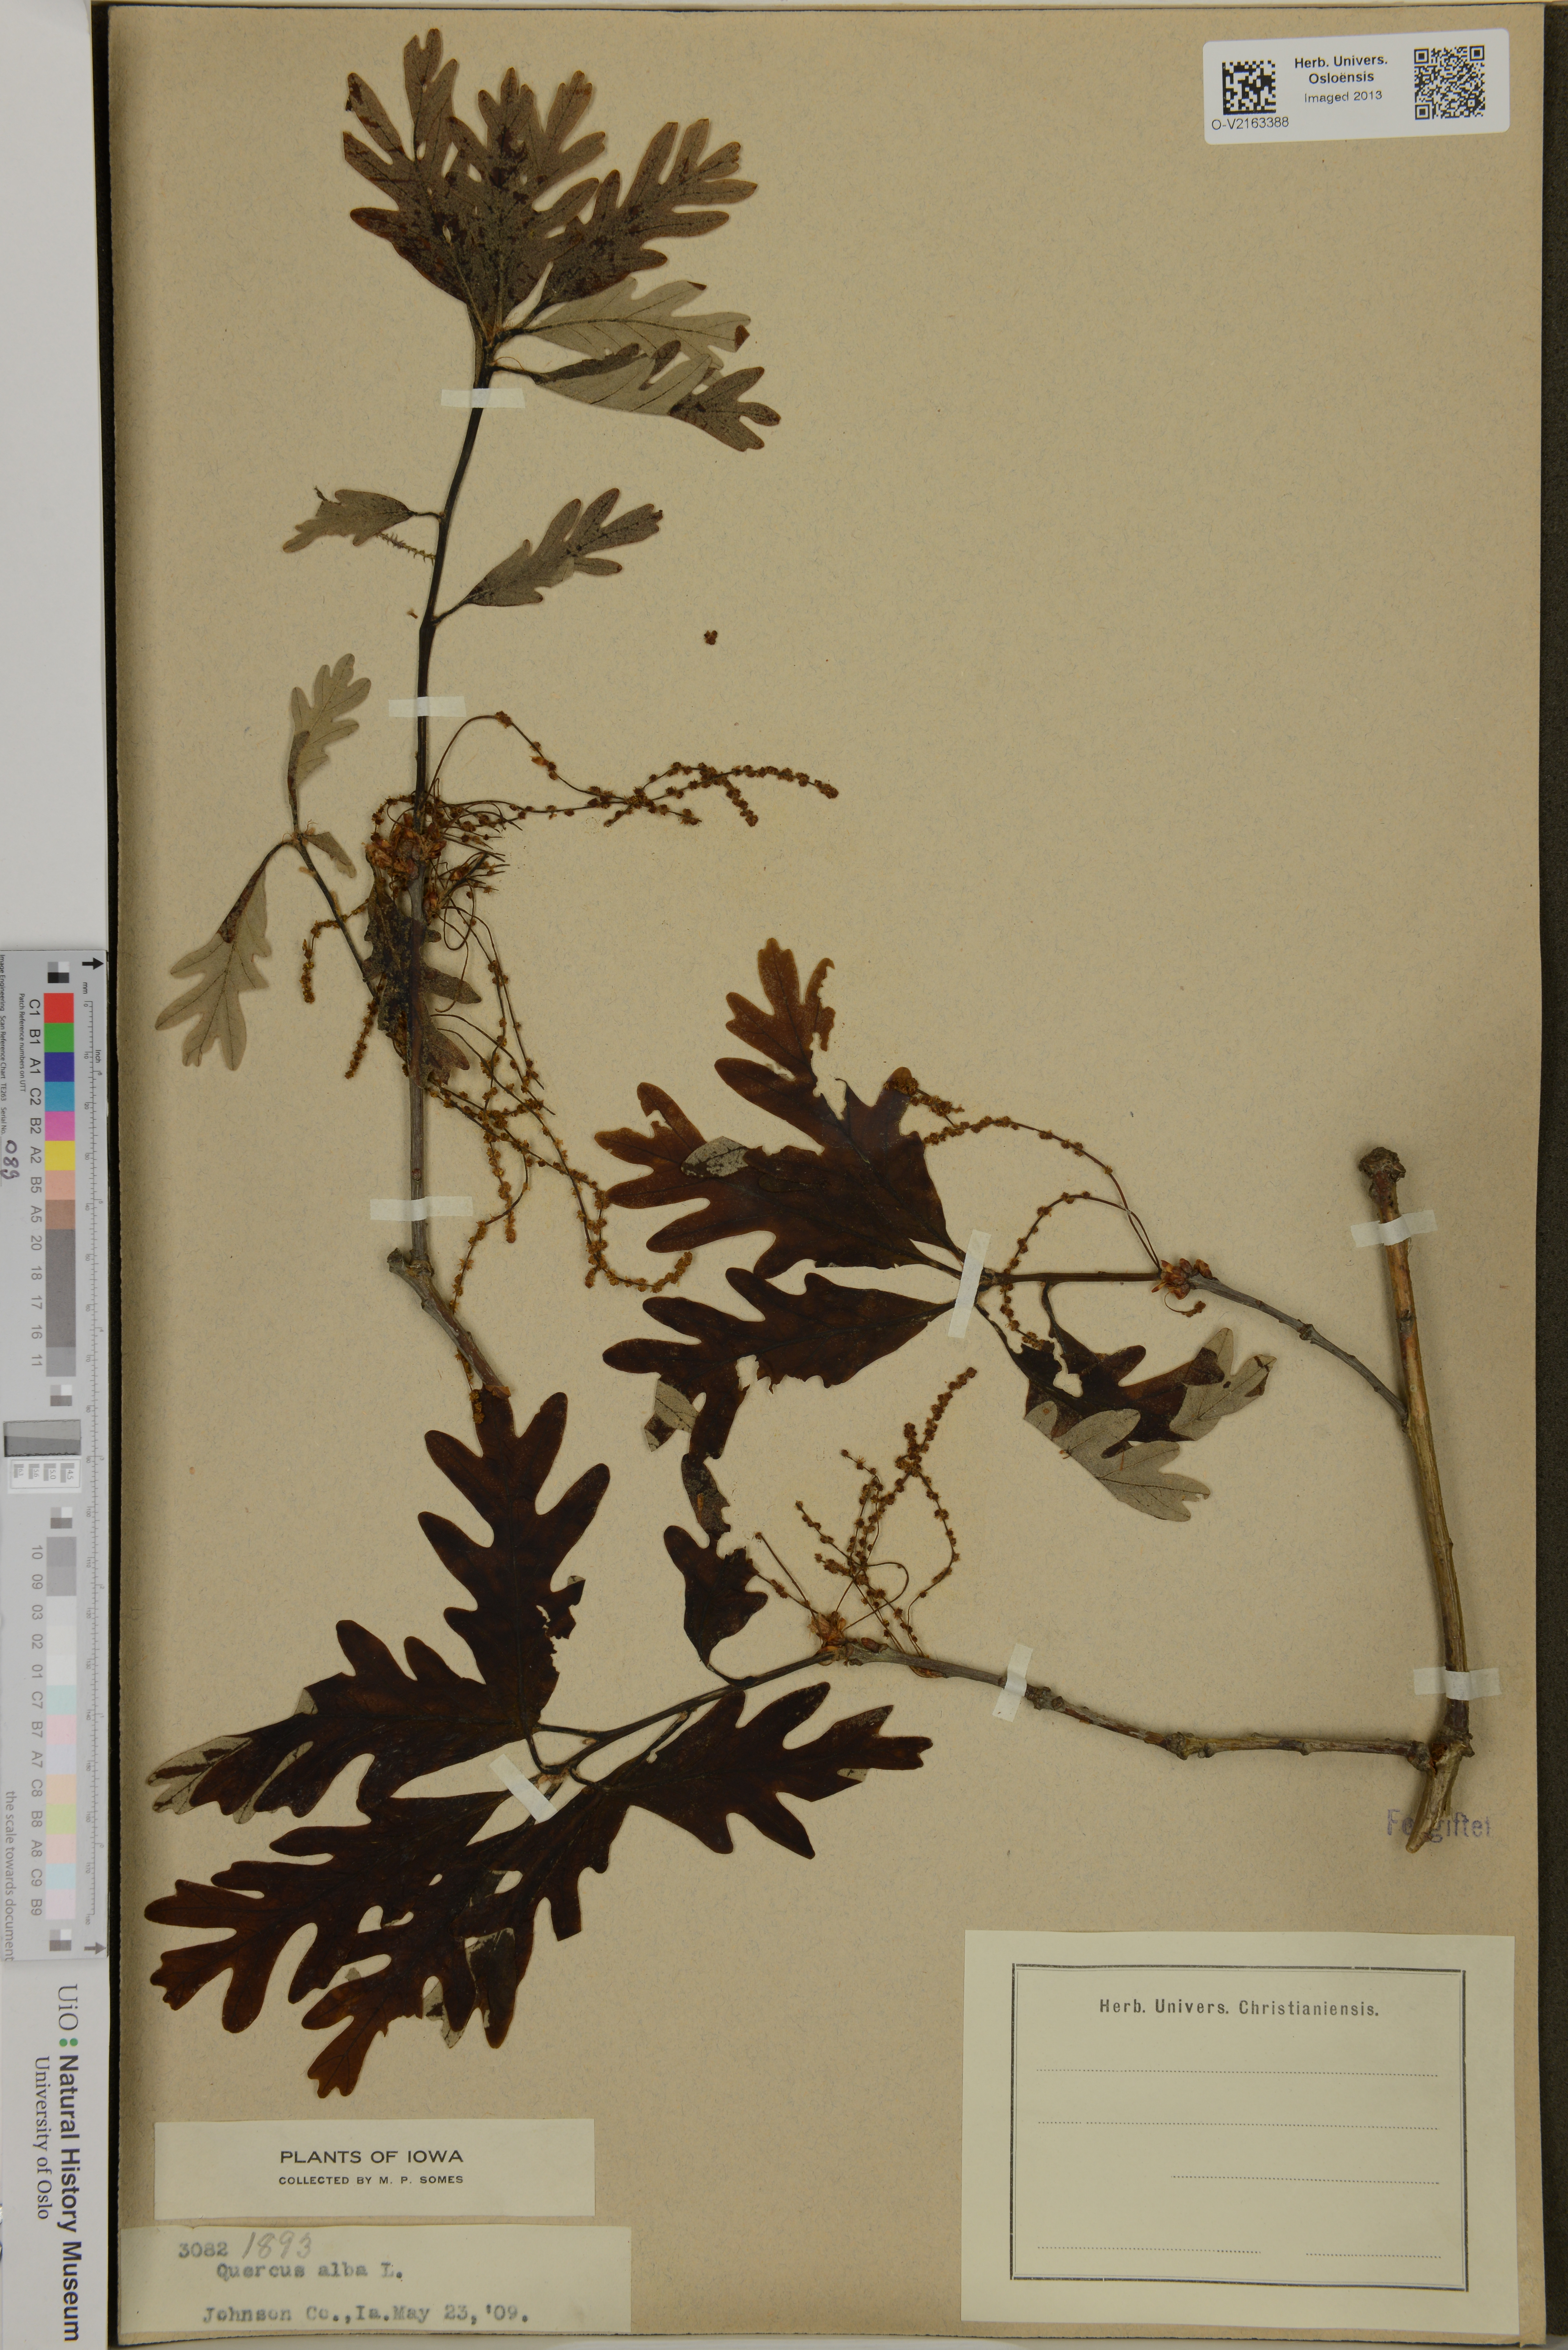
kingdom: Plantae
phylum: Tracheophyta
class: Magnoliopsida
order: Fagales
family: Fagaceae
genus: Quercus
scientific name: Quercus alba
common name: White oak
